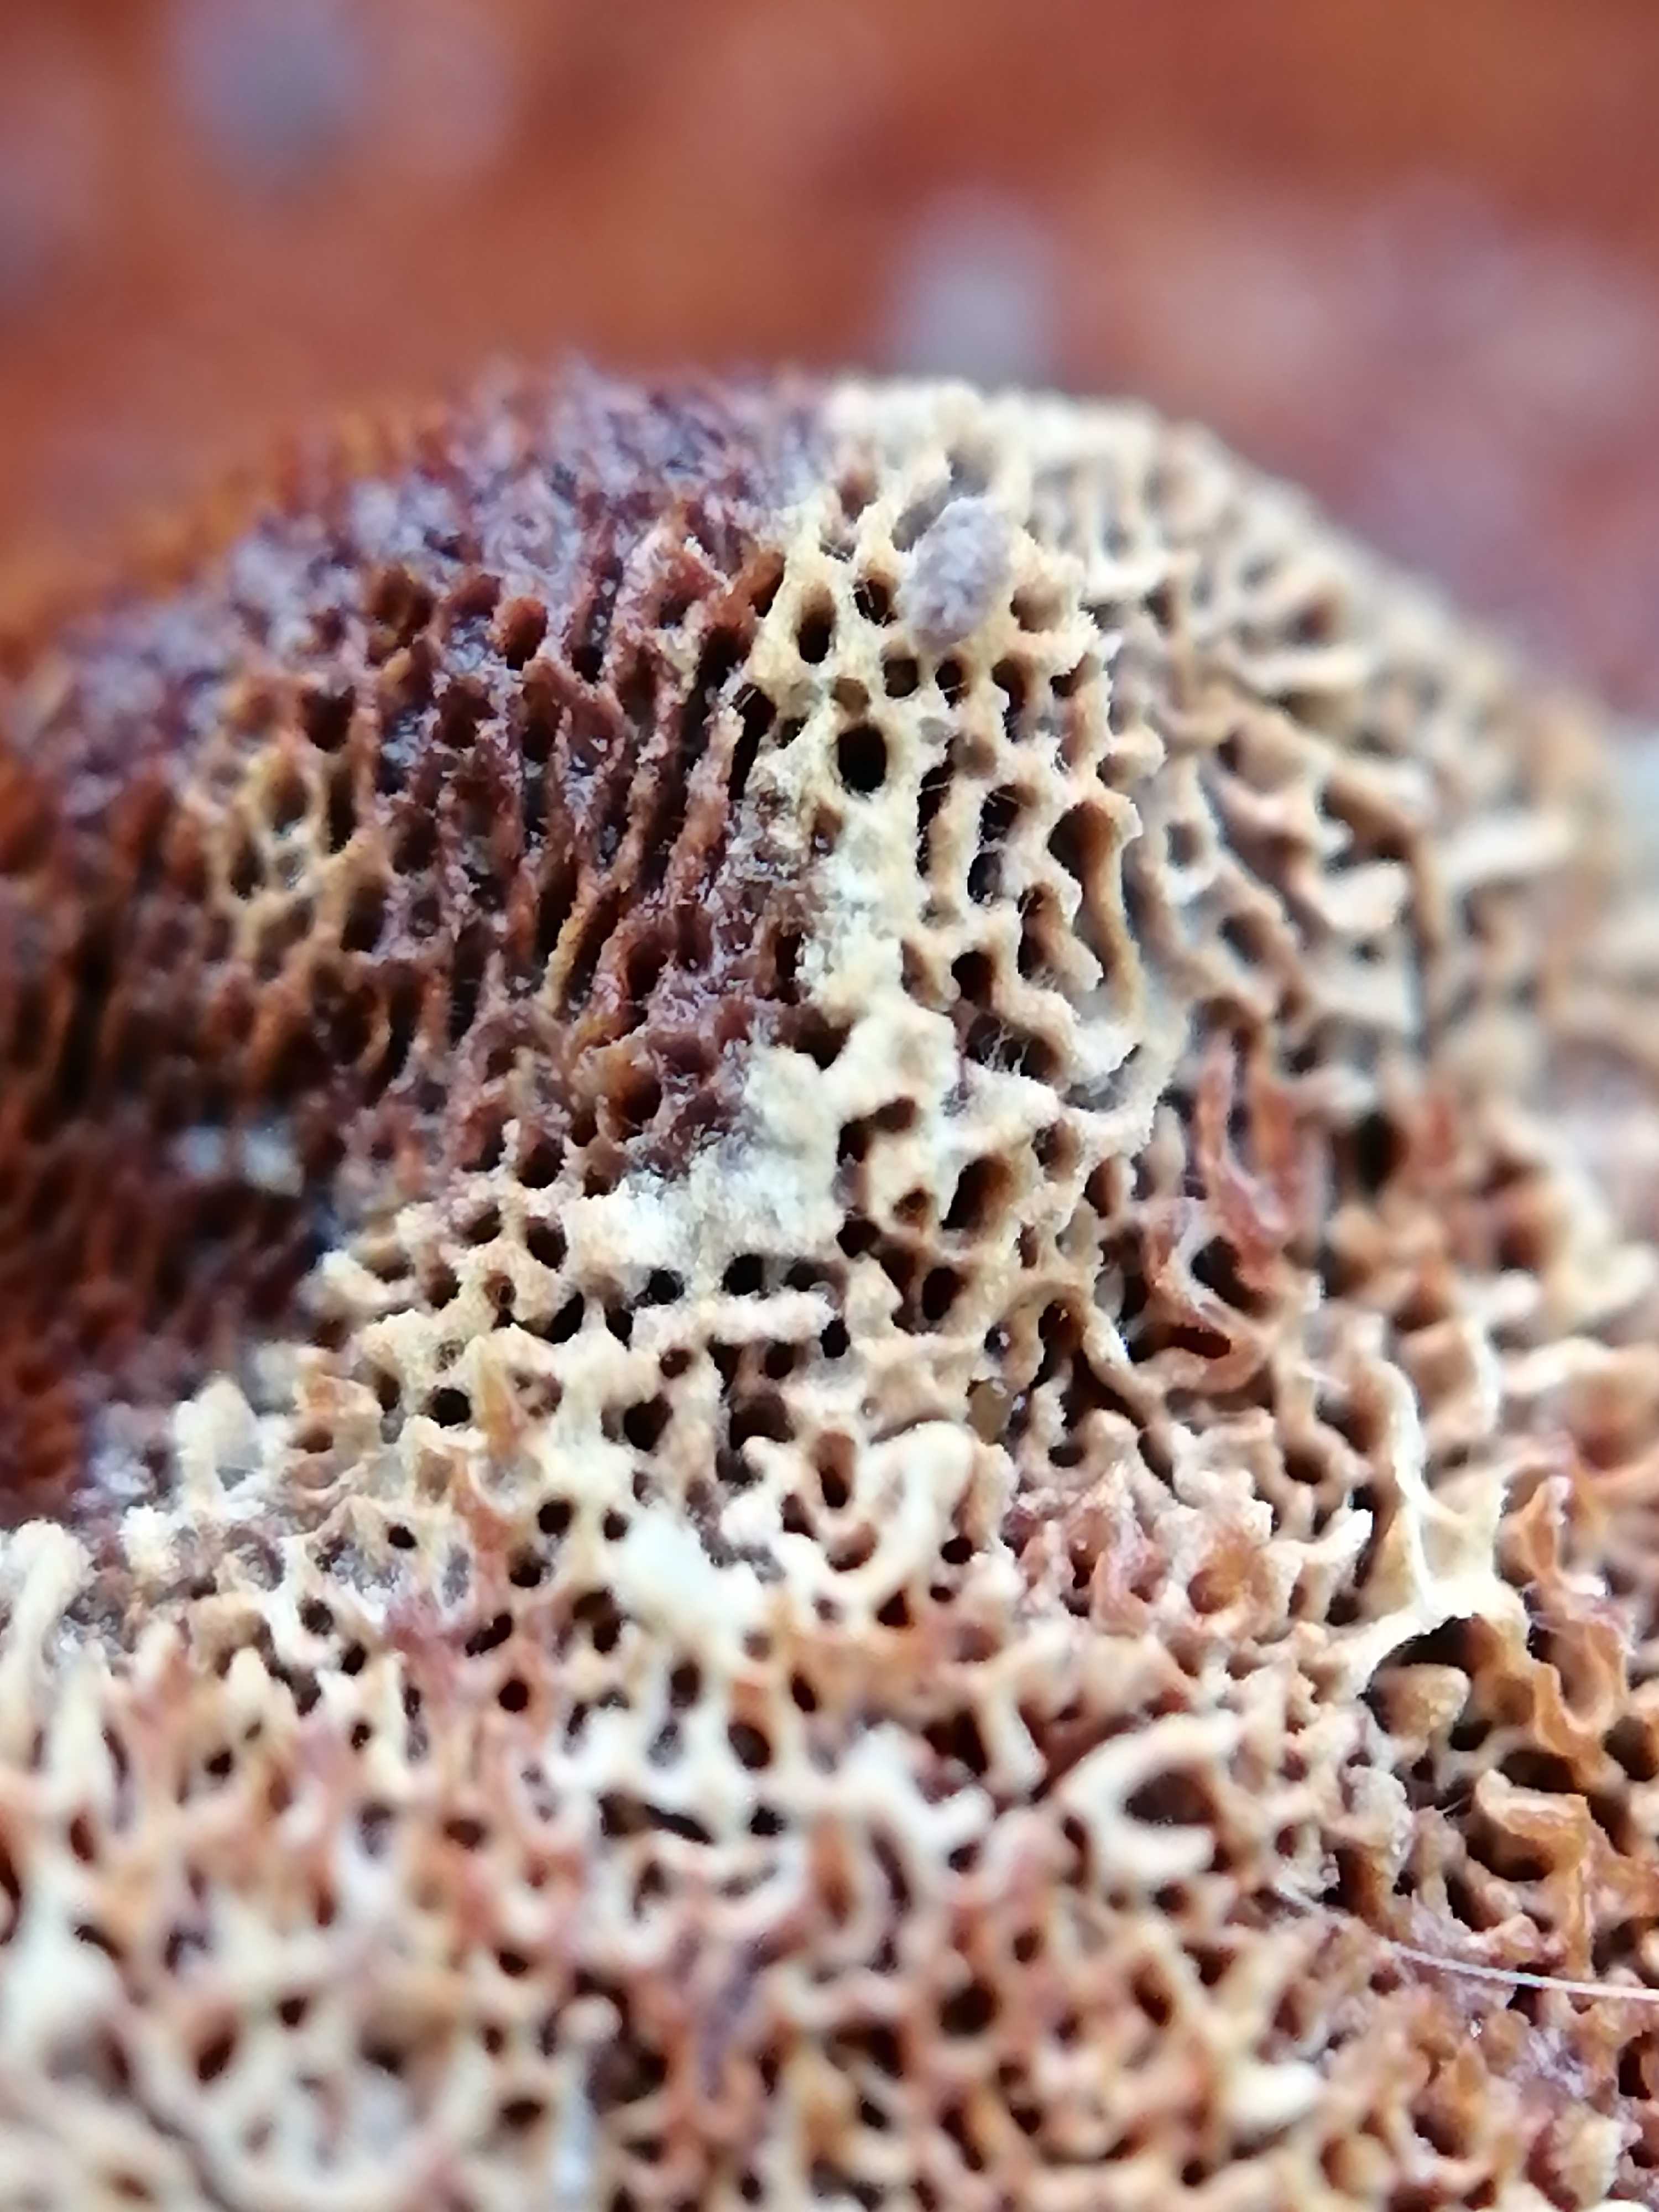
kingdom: Fungi
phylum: Basidiomycota
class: Agaricomycetes
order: Polyporales
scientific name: Polyporales
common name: poresvampordenen
